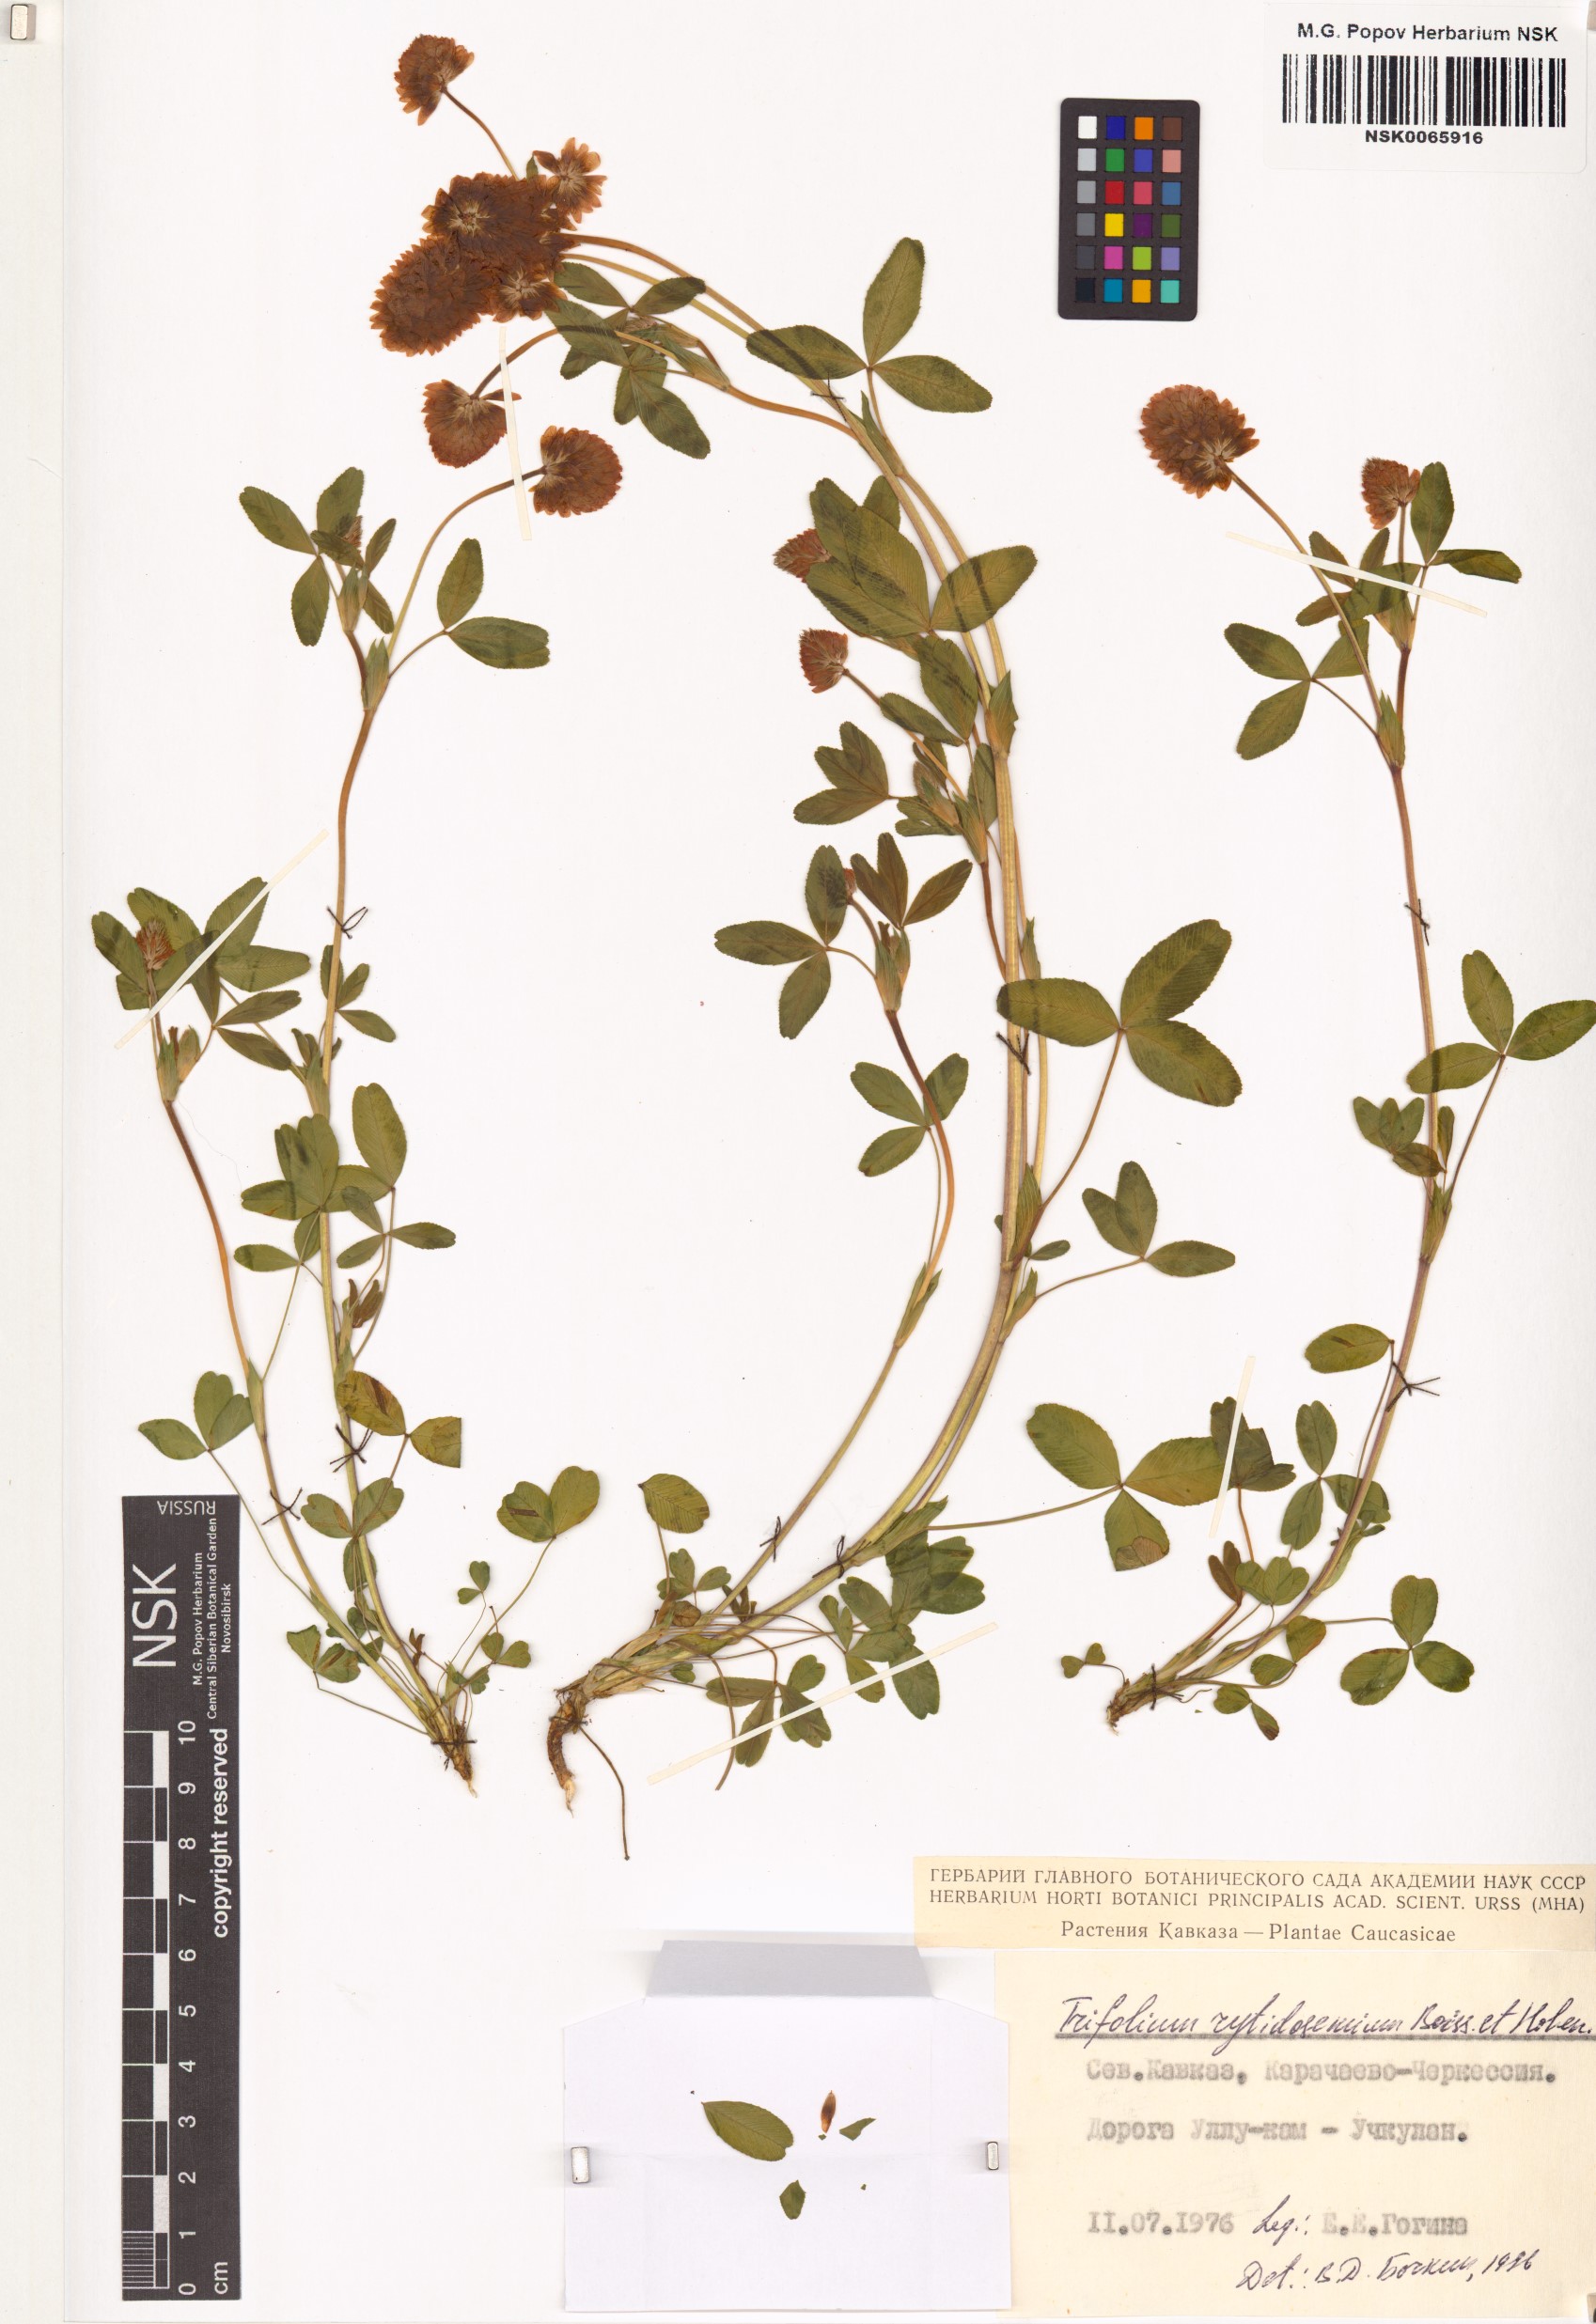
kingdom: Plantae
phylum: Tracheophyta
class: Magnoliopsida
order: Fabales
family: Fabaceae
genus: Trifolium
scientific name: Trifolium badium
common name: Brown clover
